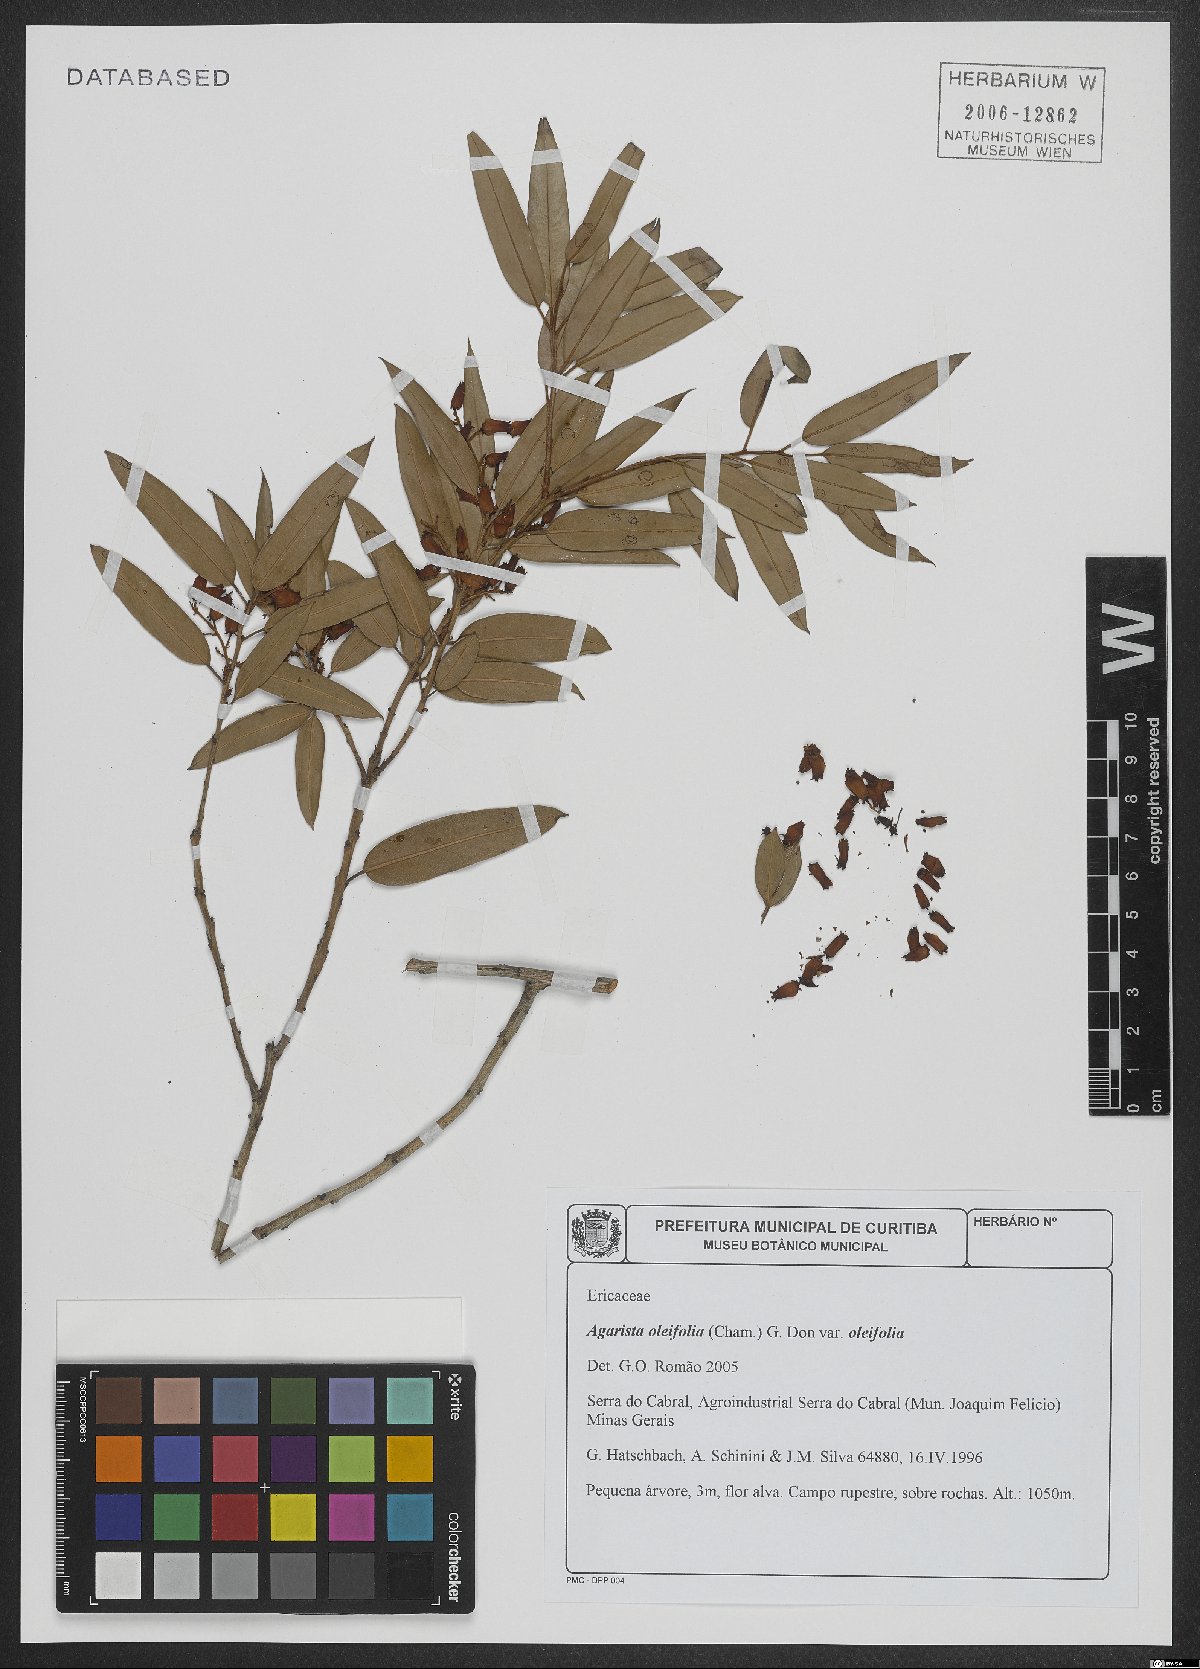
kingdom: Plantae
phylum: Tracheophyta
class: Magnoliopsida
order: Ericales
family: Ericaceae
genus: Agarista
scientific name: Agarista oleifolia
